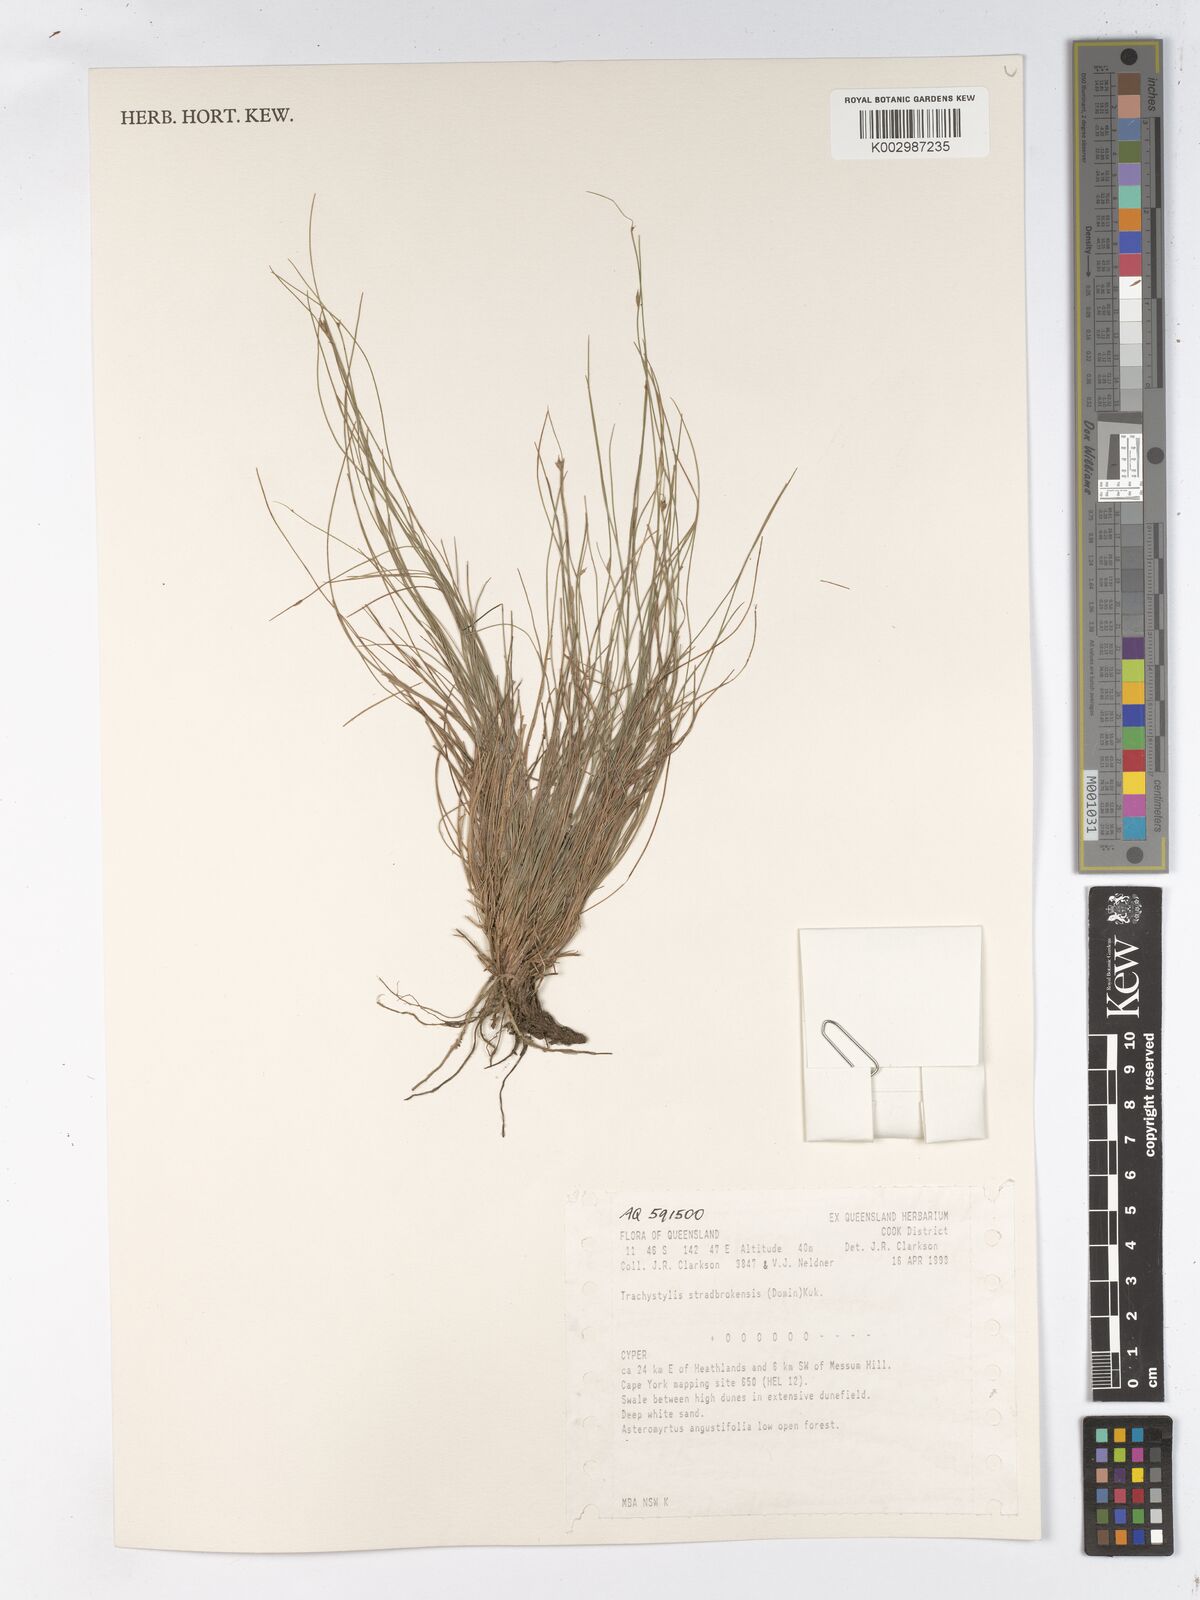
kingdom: Plantae
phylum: Tracheophyta
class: Liliopsida
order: Poales
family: Cyperaceae
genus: Trachystylis
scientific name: Trachystylis stradbrokensis
